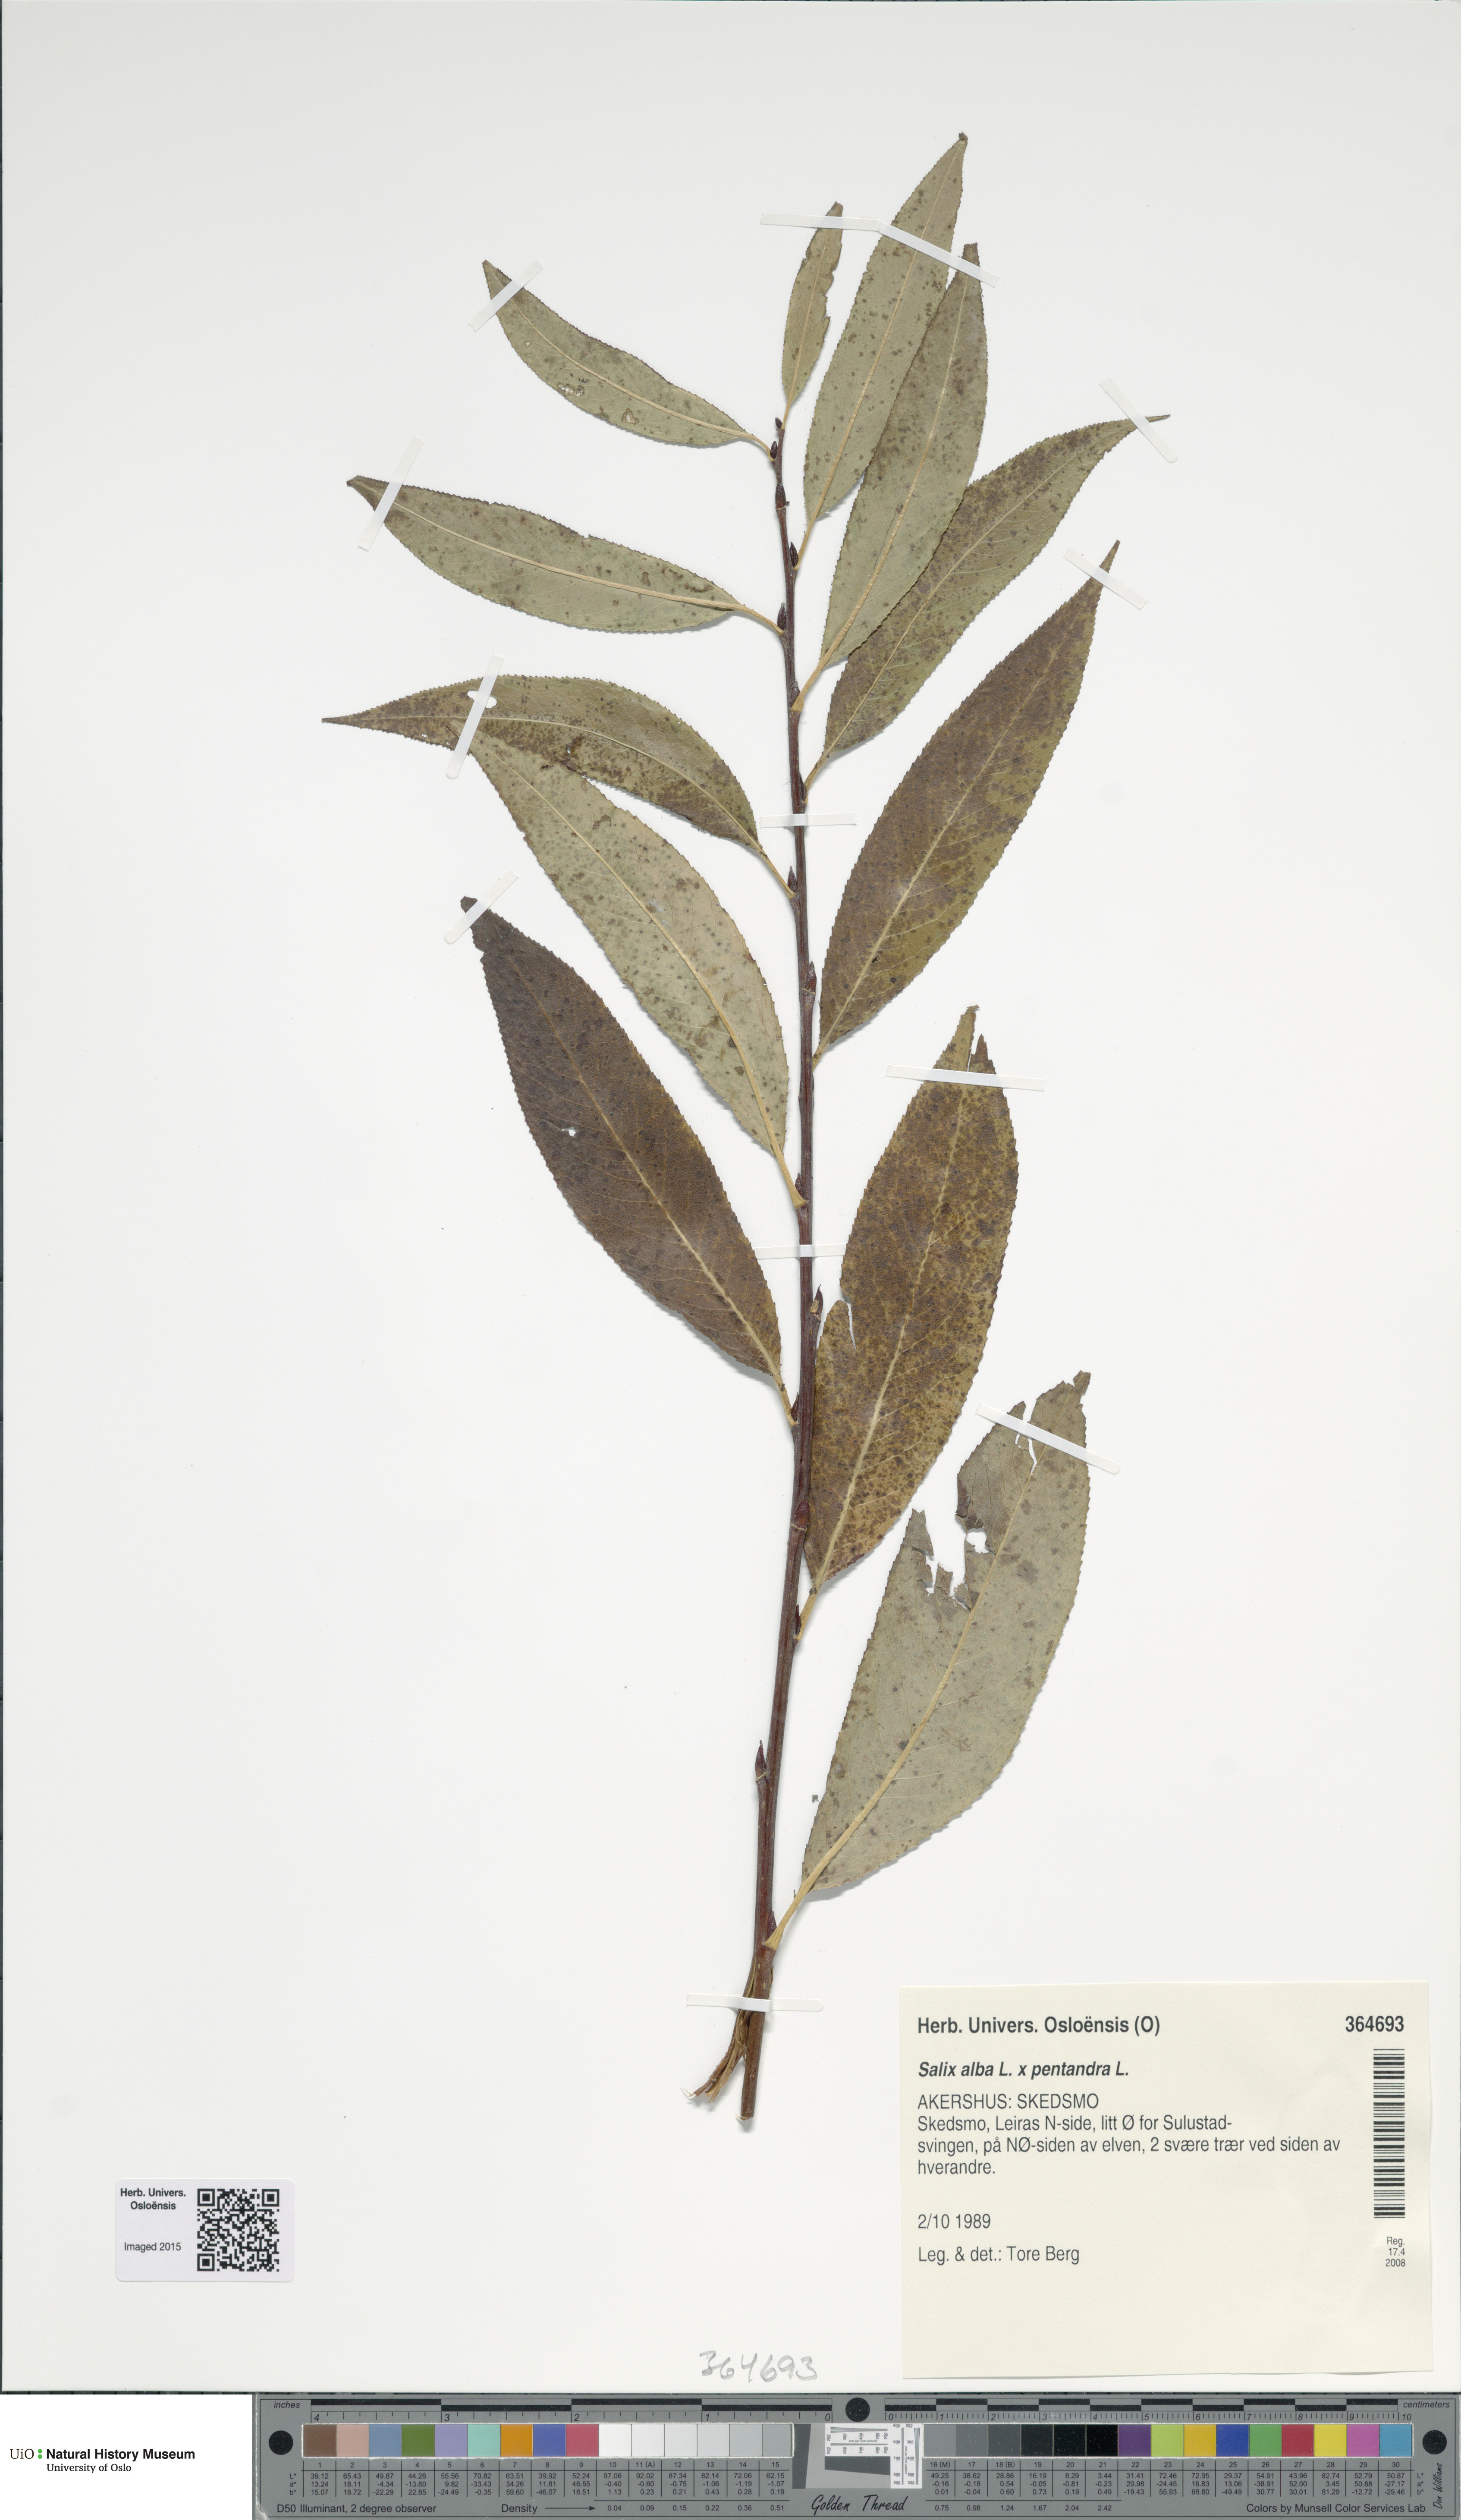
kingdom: Plantae
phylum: Tracheophyta
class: Magnoliopsida
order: Malpighiales
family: Salicaceae
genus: Salix
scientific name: Salix
